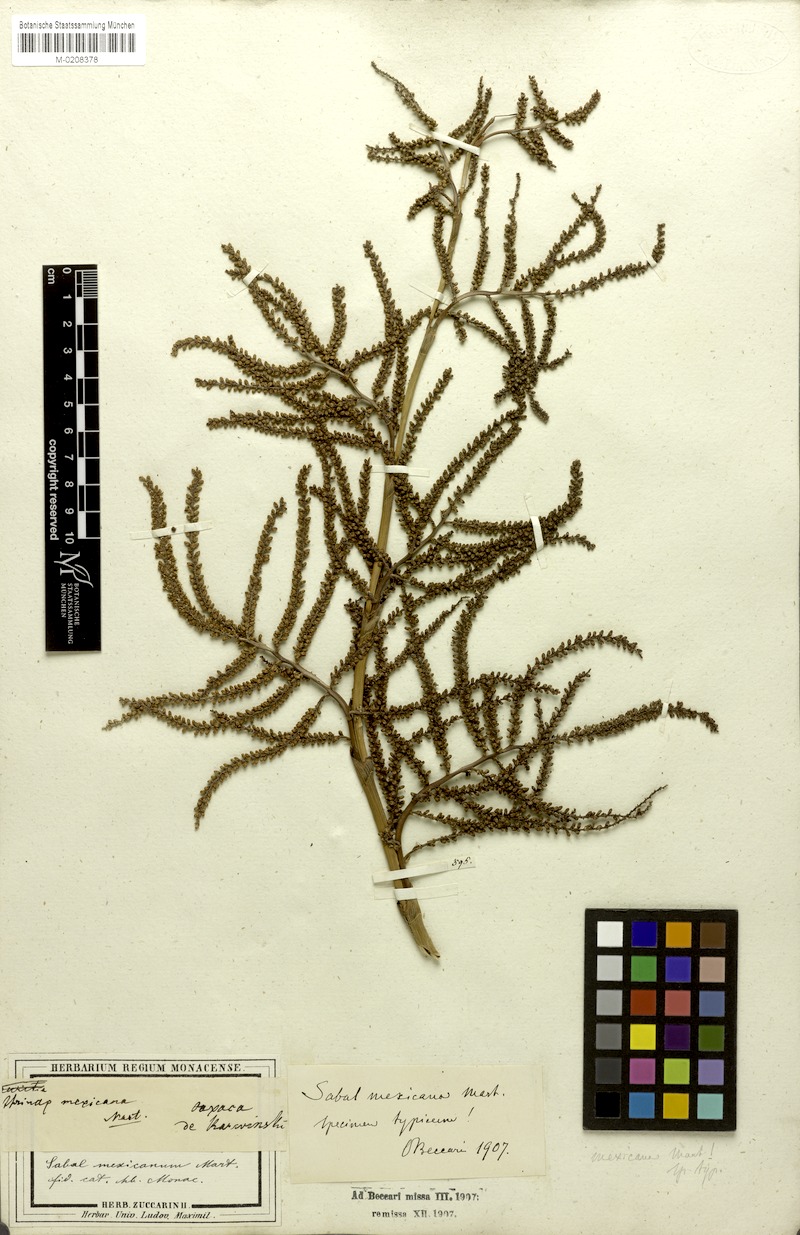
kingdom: Plantae
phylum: Tracheophyta
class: Liliopsida
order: Arecales
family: Arecaceae
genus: Sabal
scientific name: Sabal mexicana
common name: Texas palmetto
